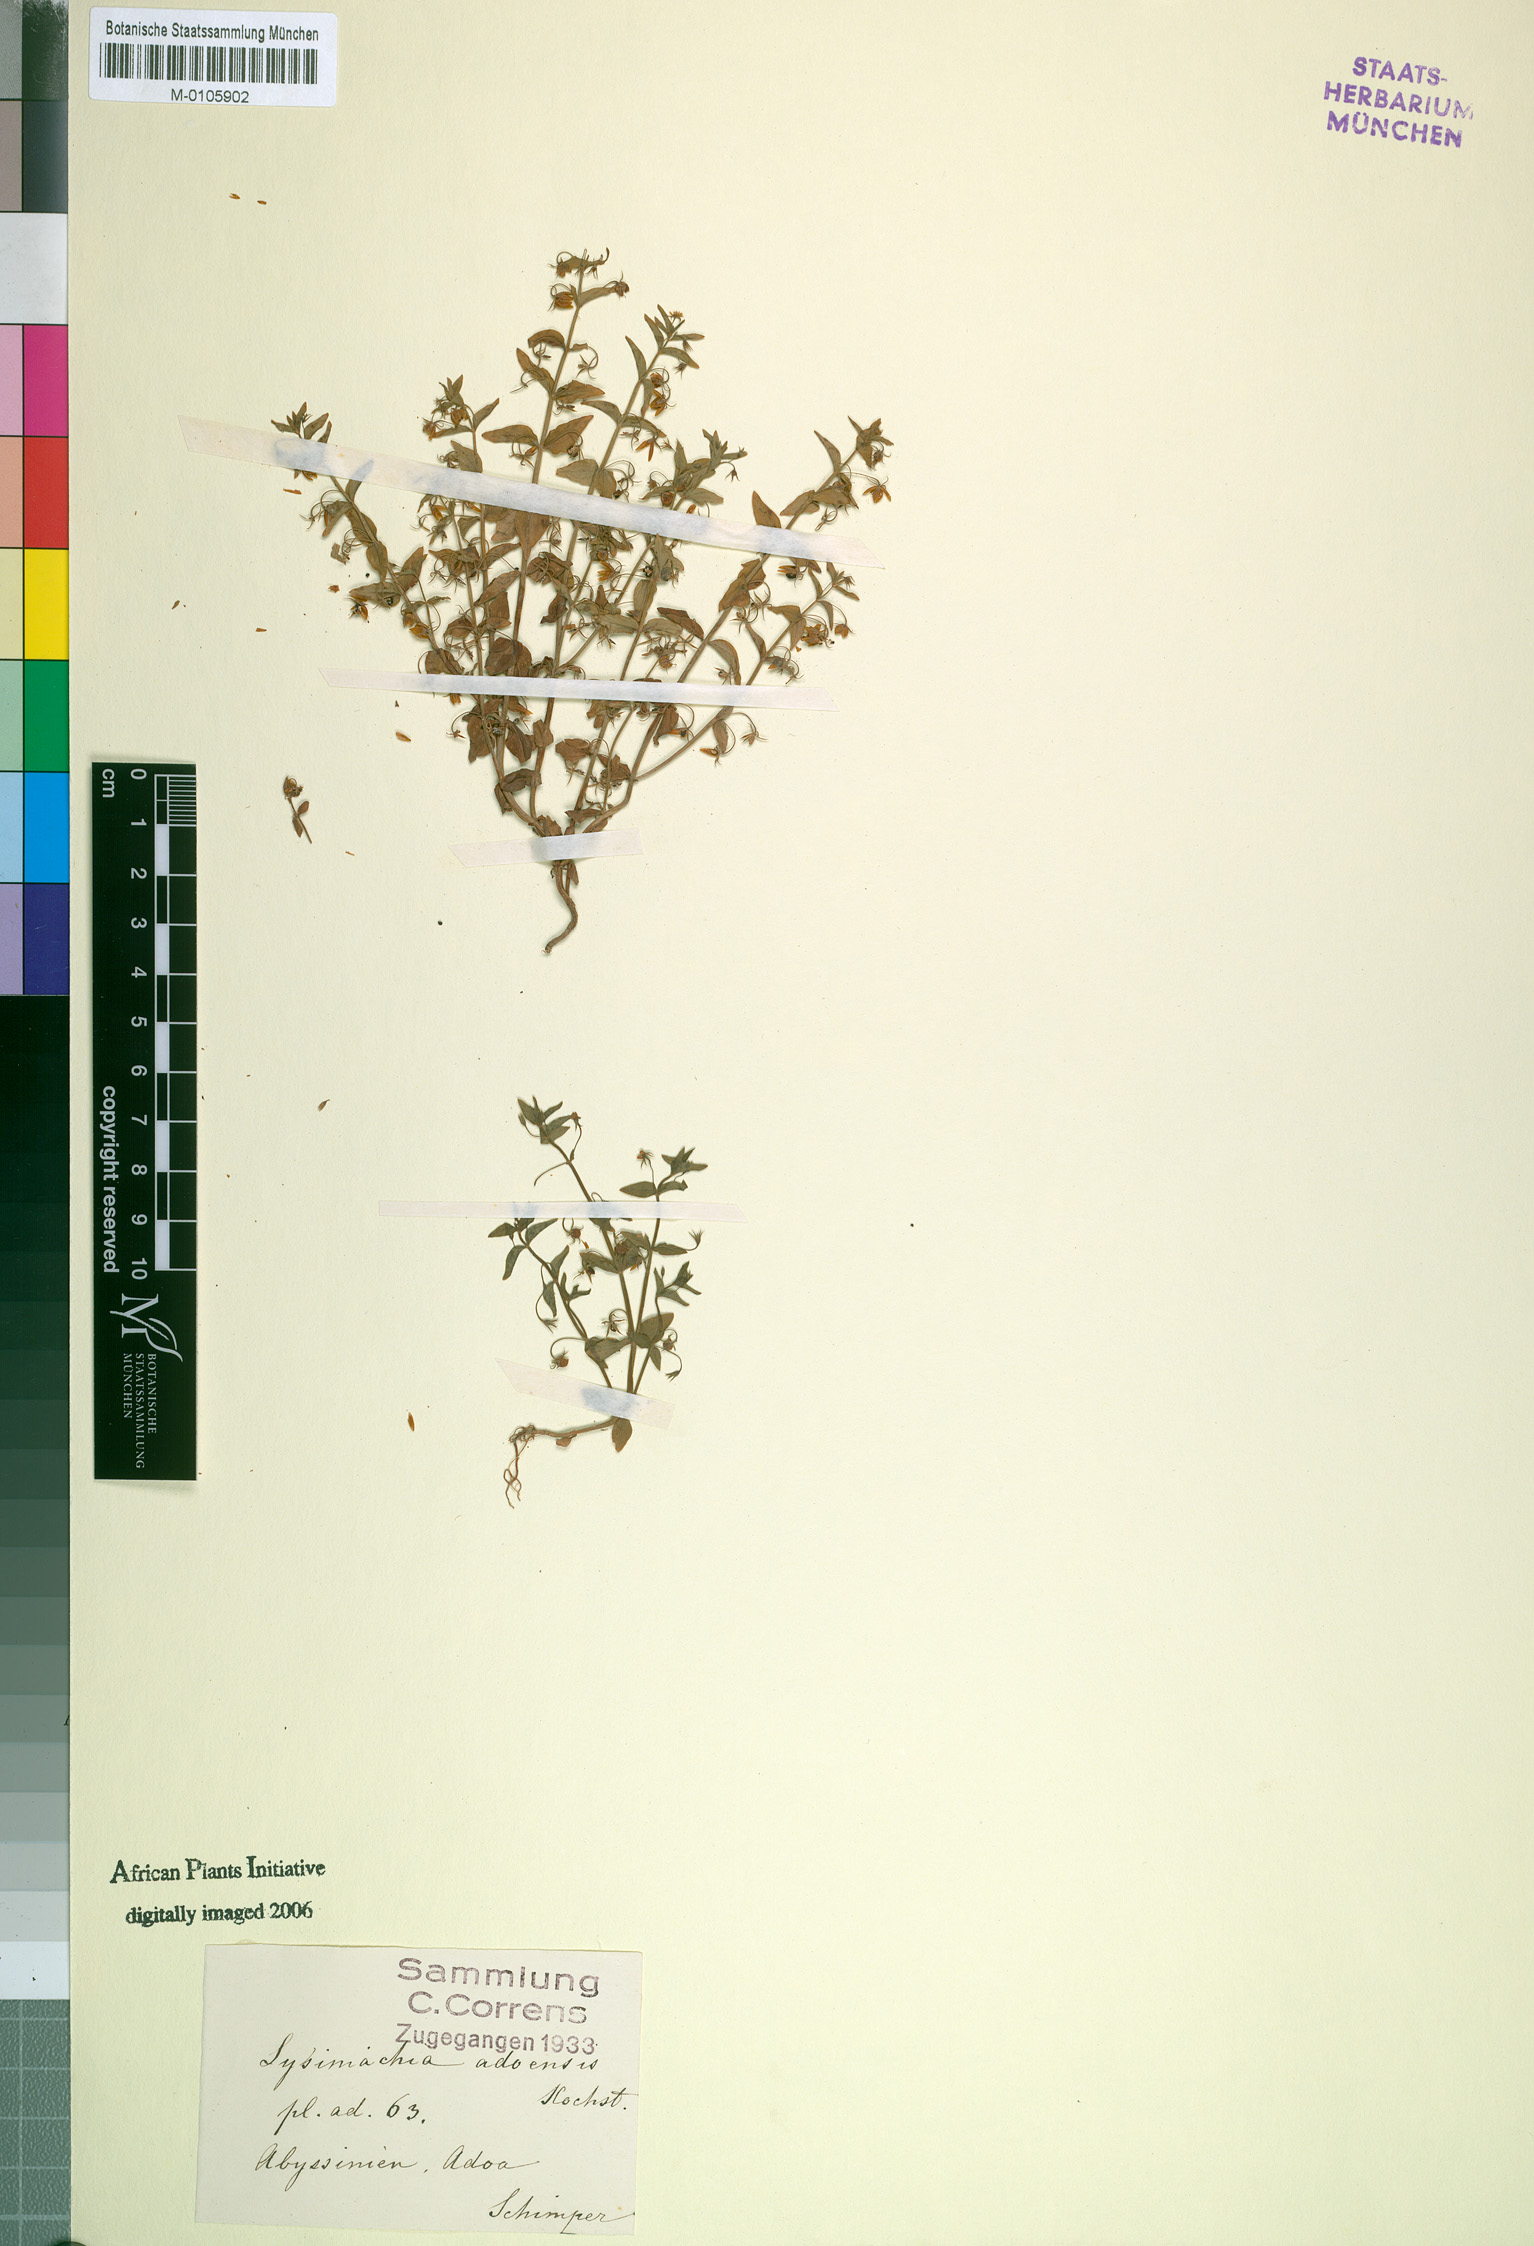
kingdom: Plantae
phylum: Tracheophyta
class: Magnoliopsida
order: Ericales
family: Primulaceae
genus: Lysimachia
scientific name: Lysimachia arvensis
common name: Scarlet pimpernel
